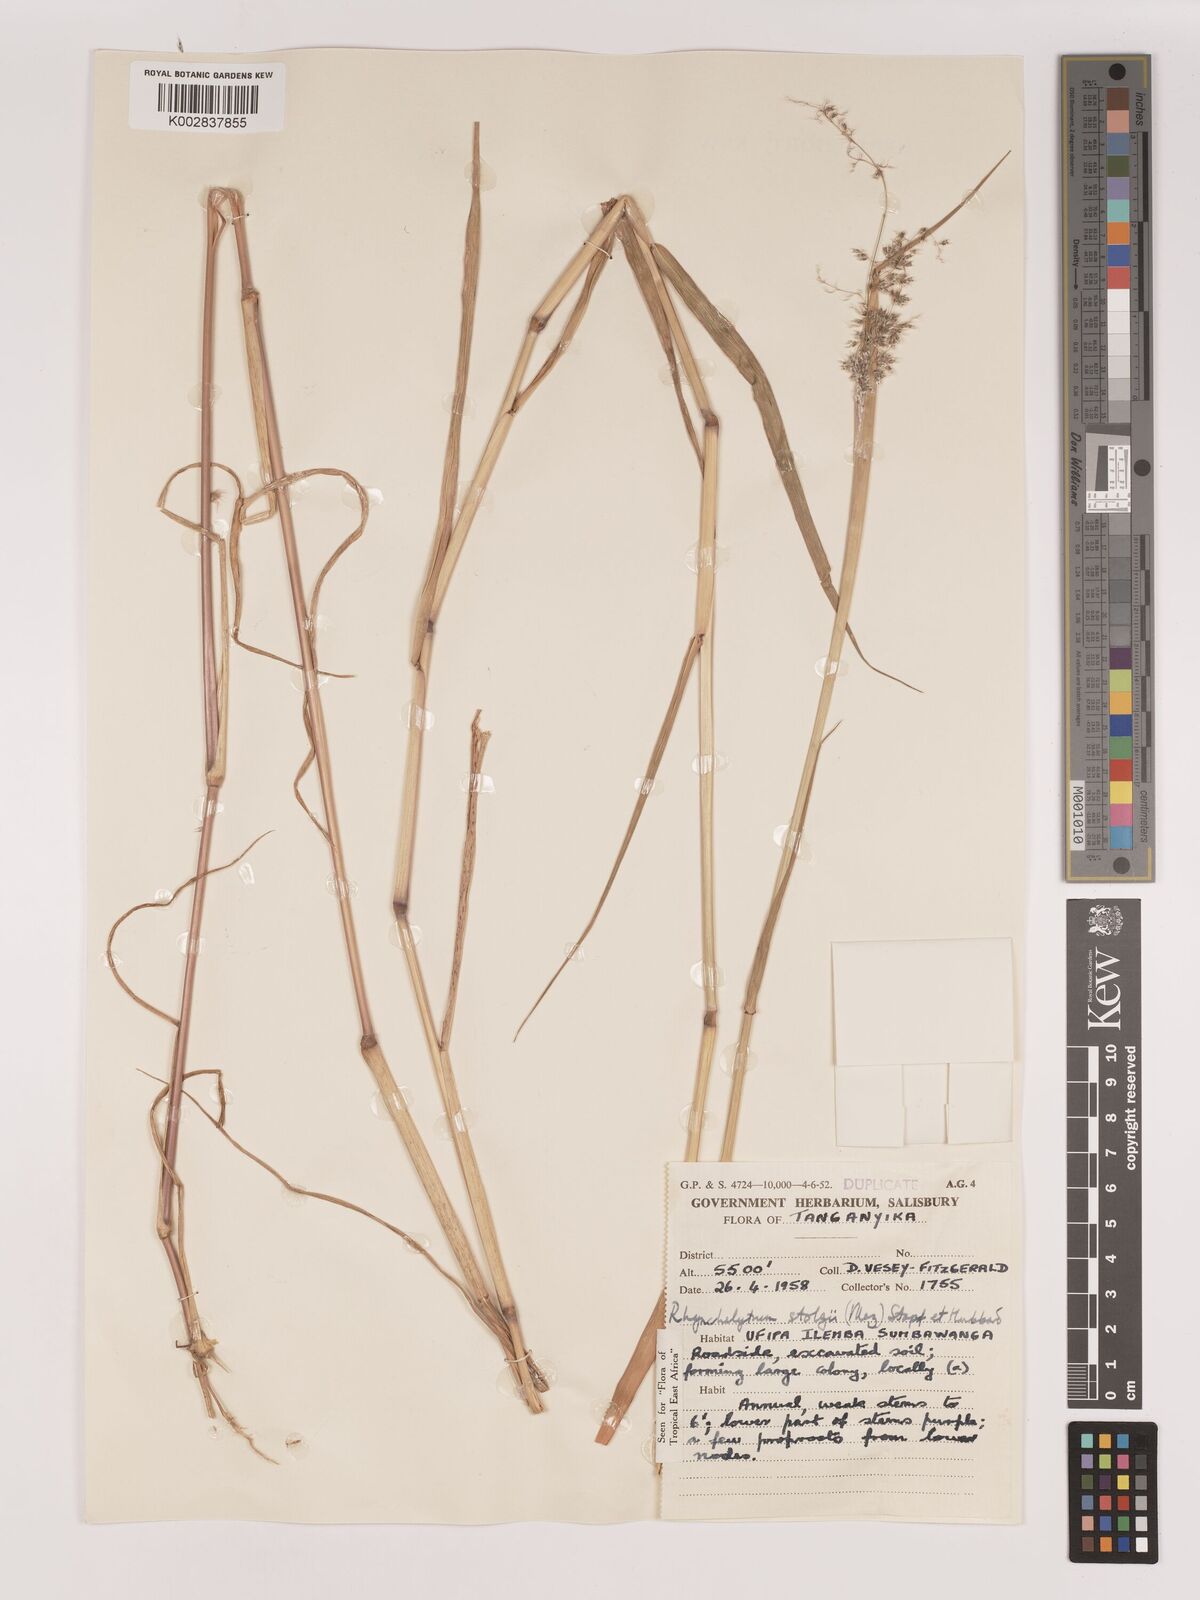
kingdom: Plantae
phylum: Tracheophyta
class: Liliopsida
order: Poales
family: Poaceae
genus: Melinis
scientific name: Melinis repens
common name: Rose natal grass
